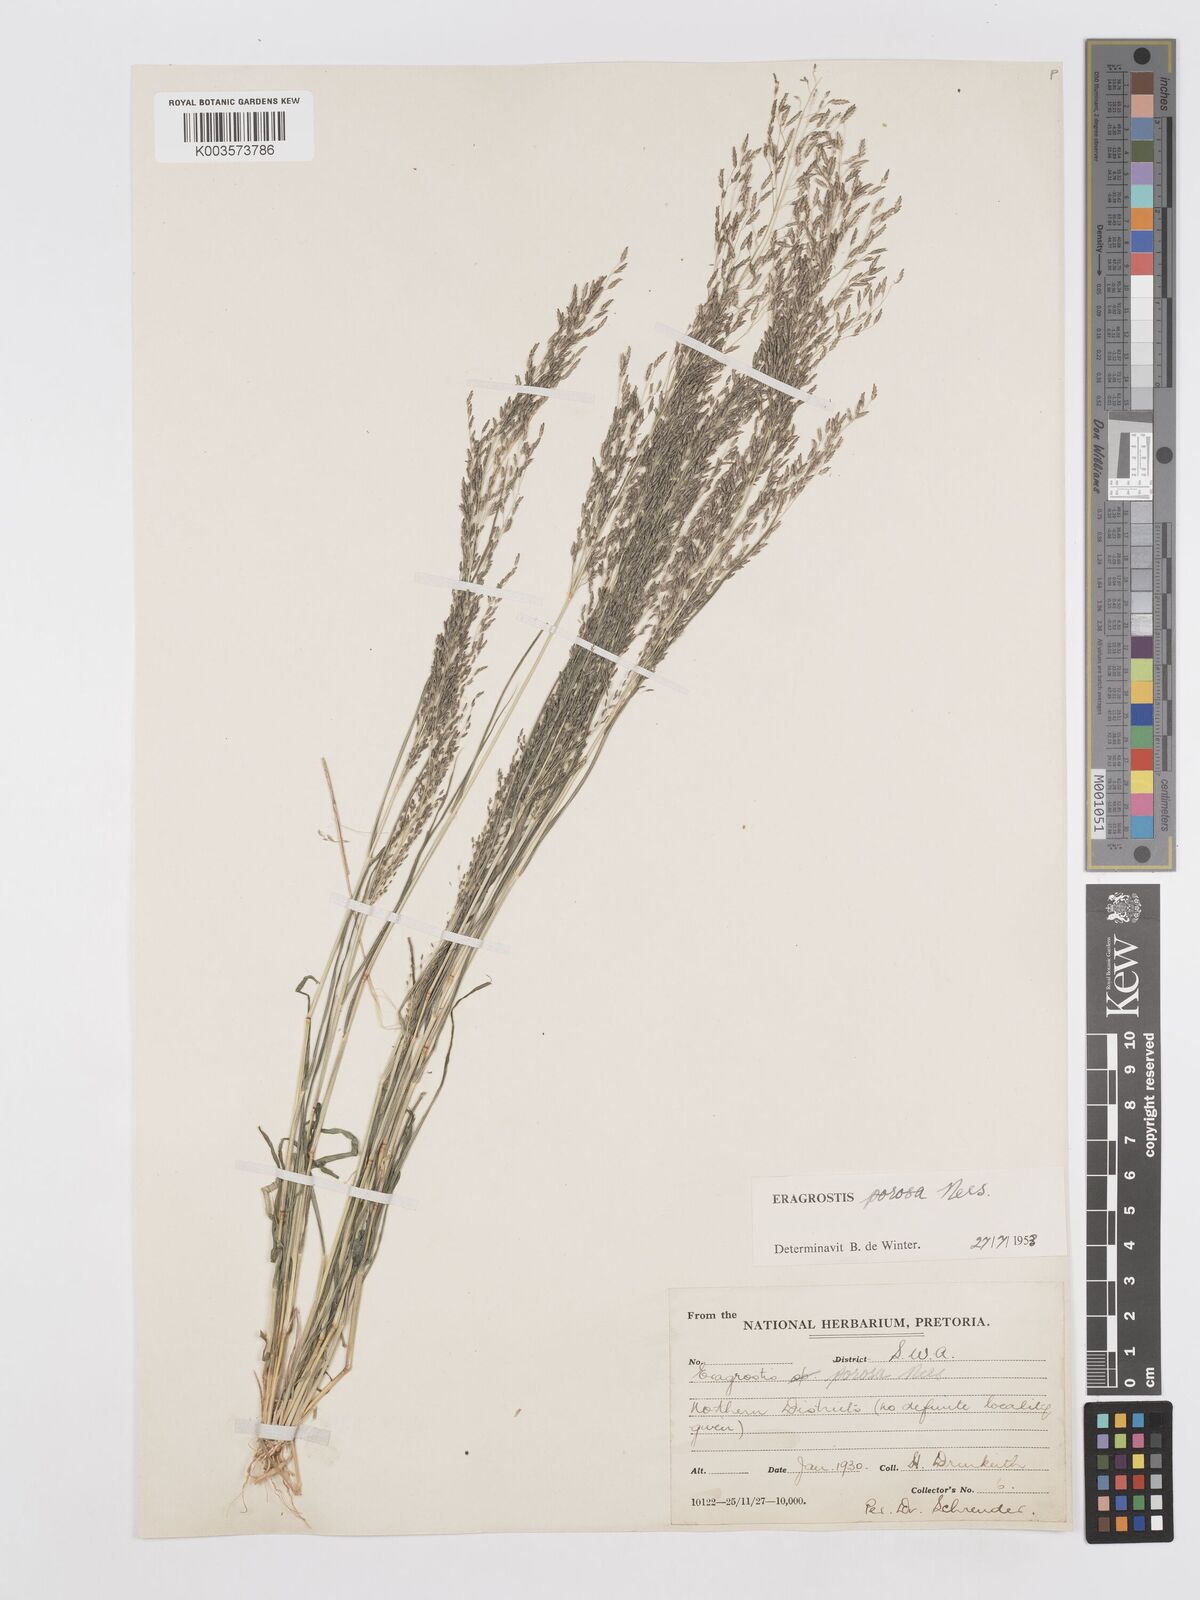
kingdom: Plantae
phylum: Tracheophyta
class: Liliopsida
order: Poales
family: Poaceae
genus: Eragrostis
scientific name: Eragrostis porosa
